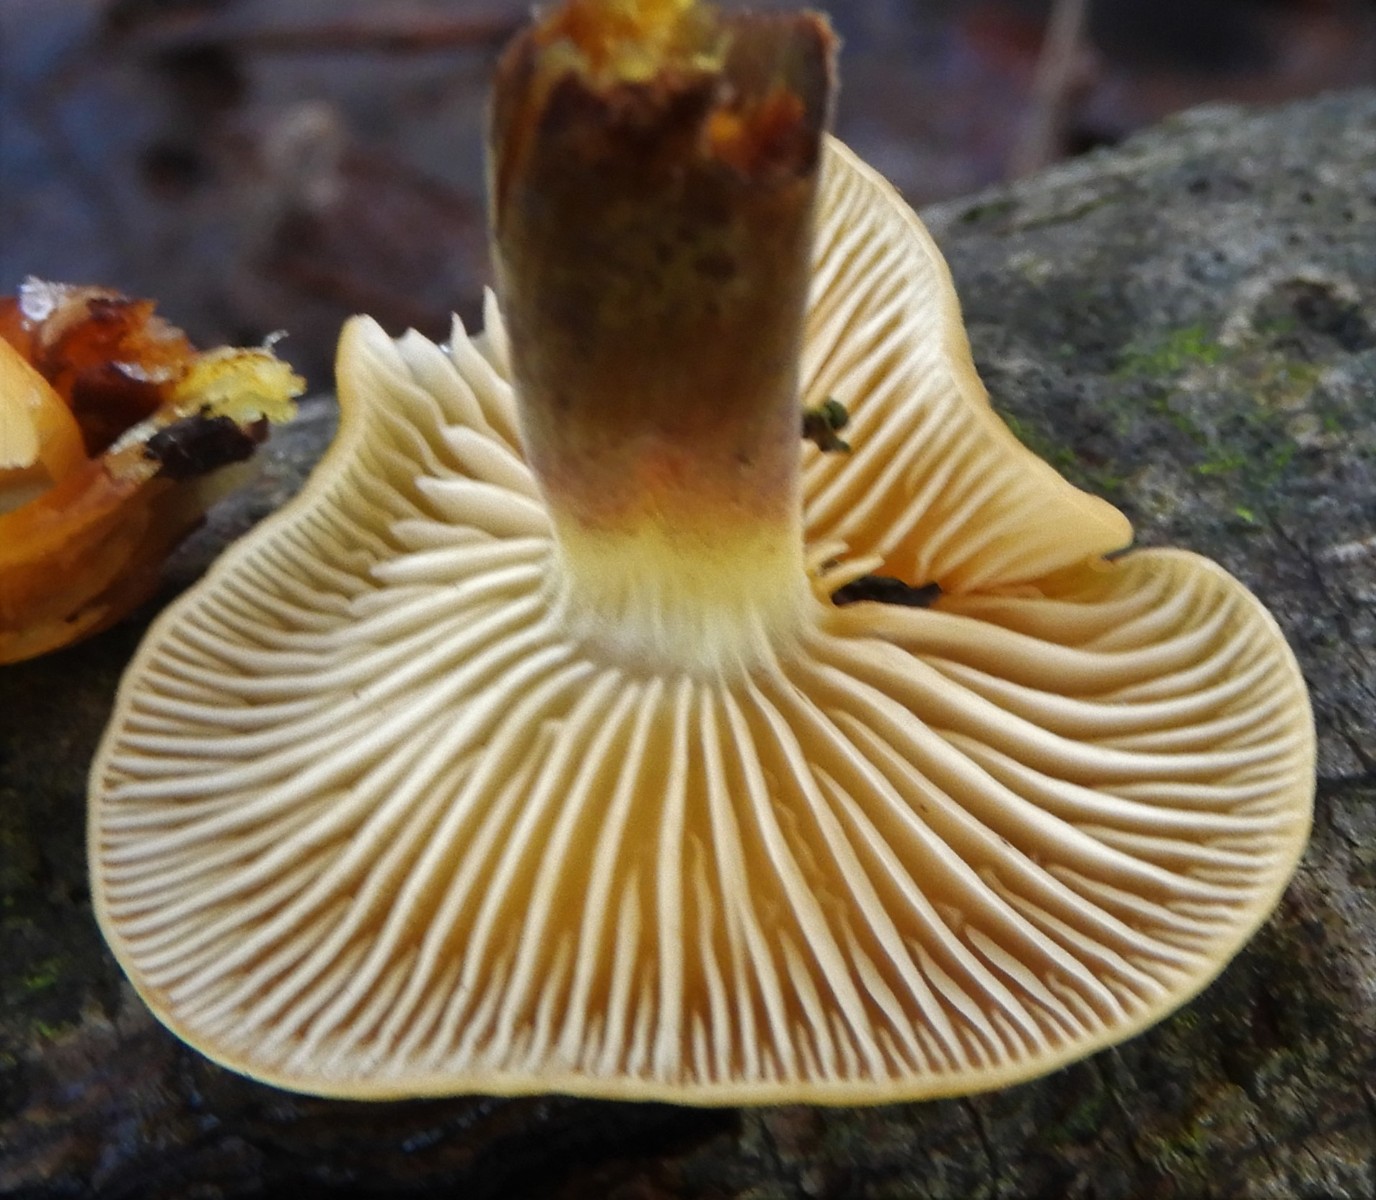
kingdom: Fungi
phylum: Basidiomycota
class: Agaricomycetes
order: Agaricales
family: Physalacriaceae
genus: Flammulina
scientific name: Flammulina
